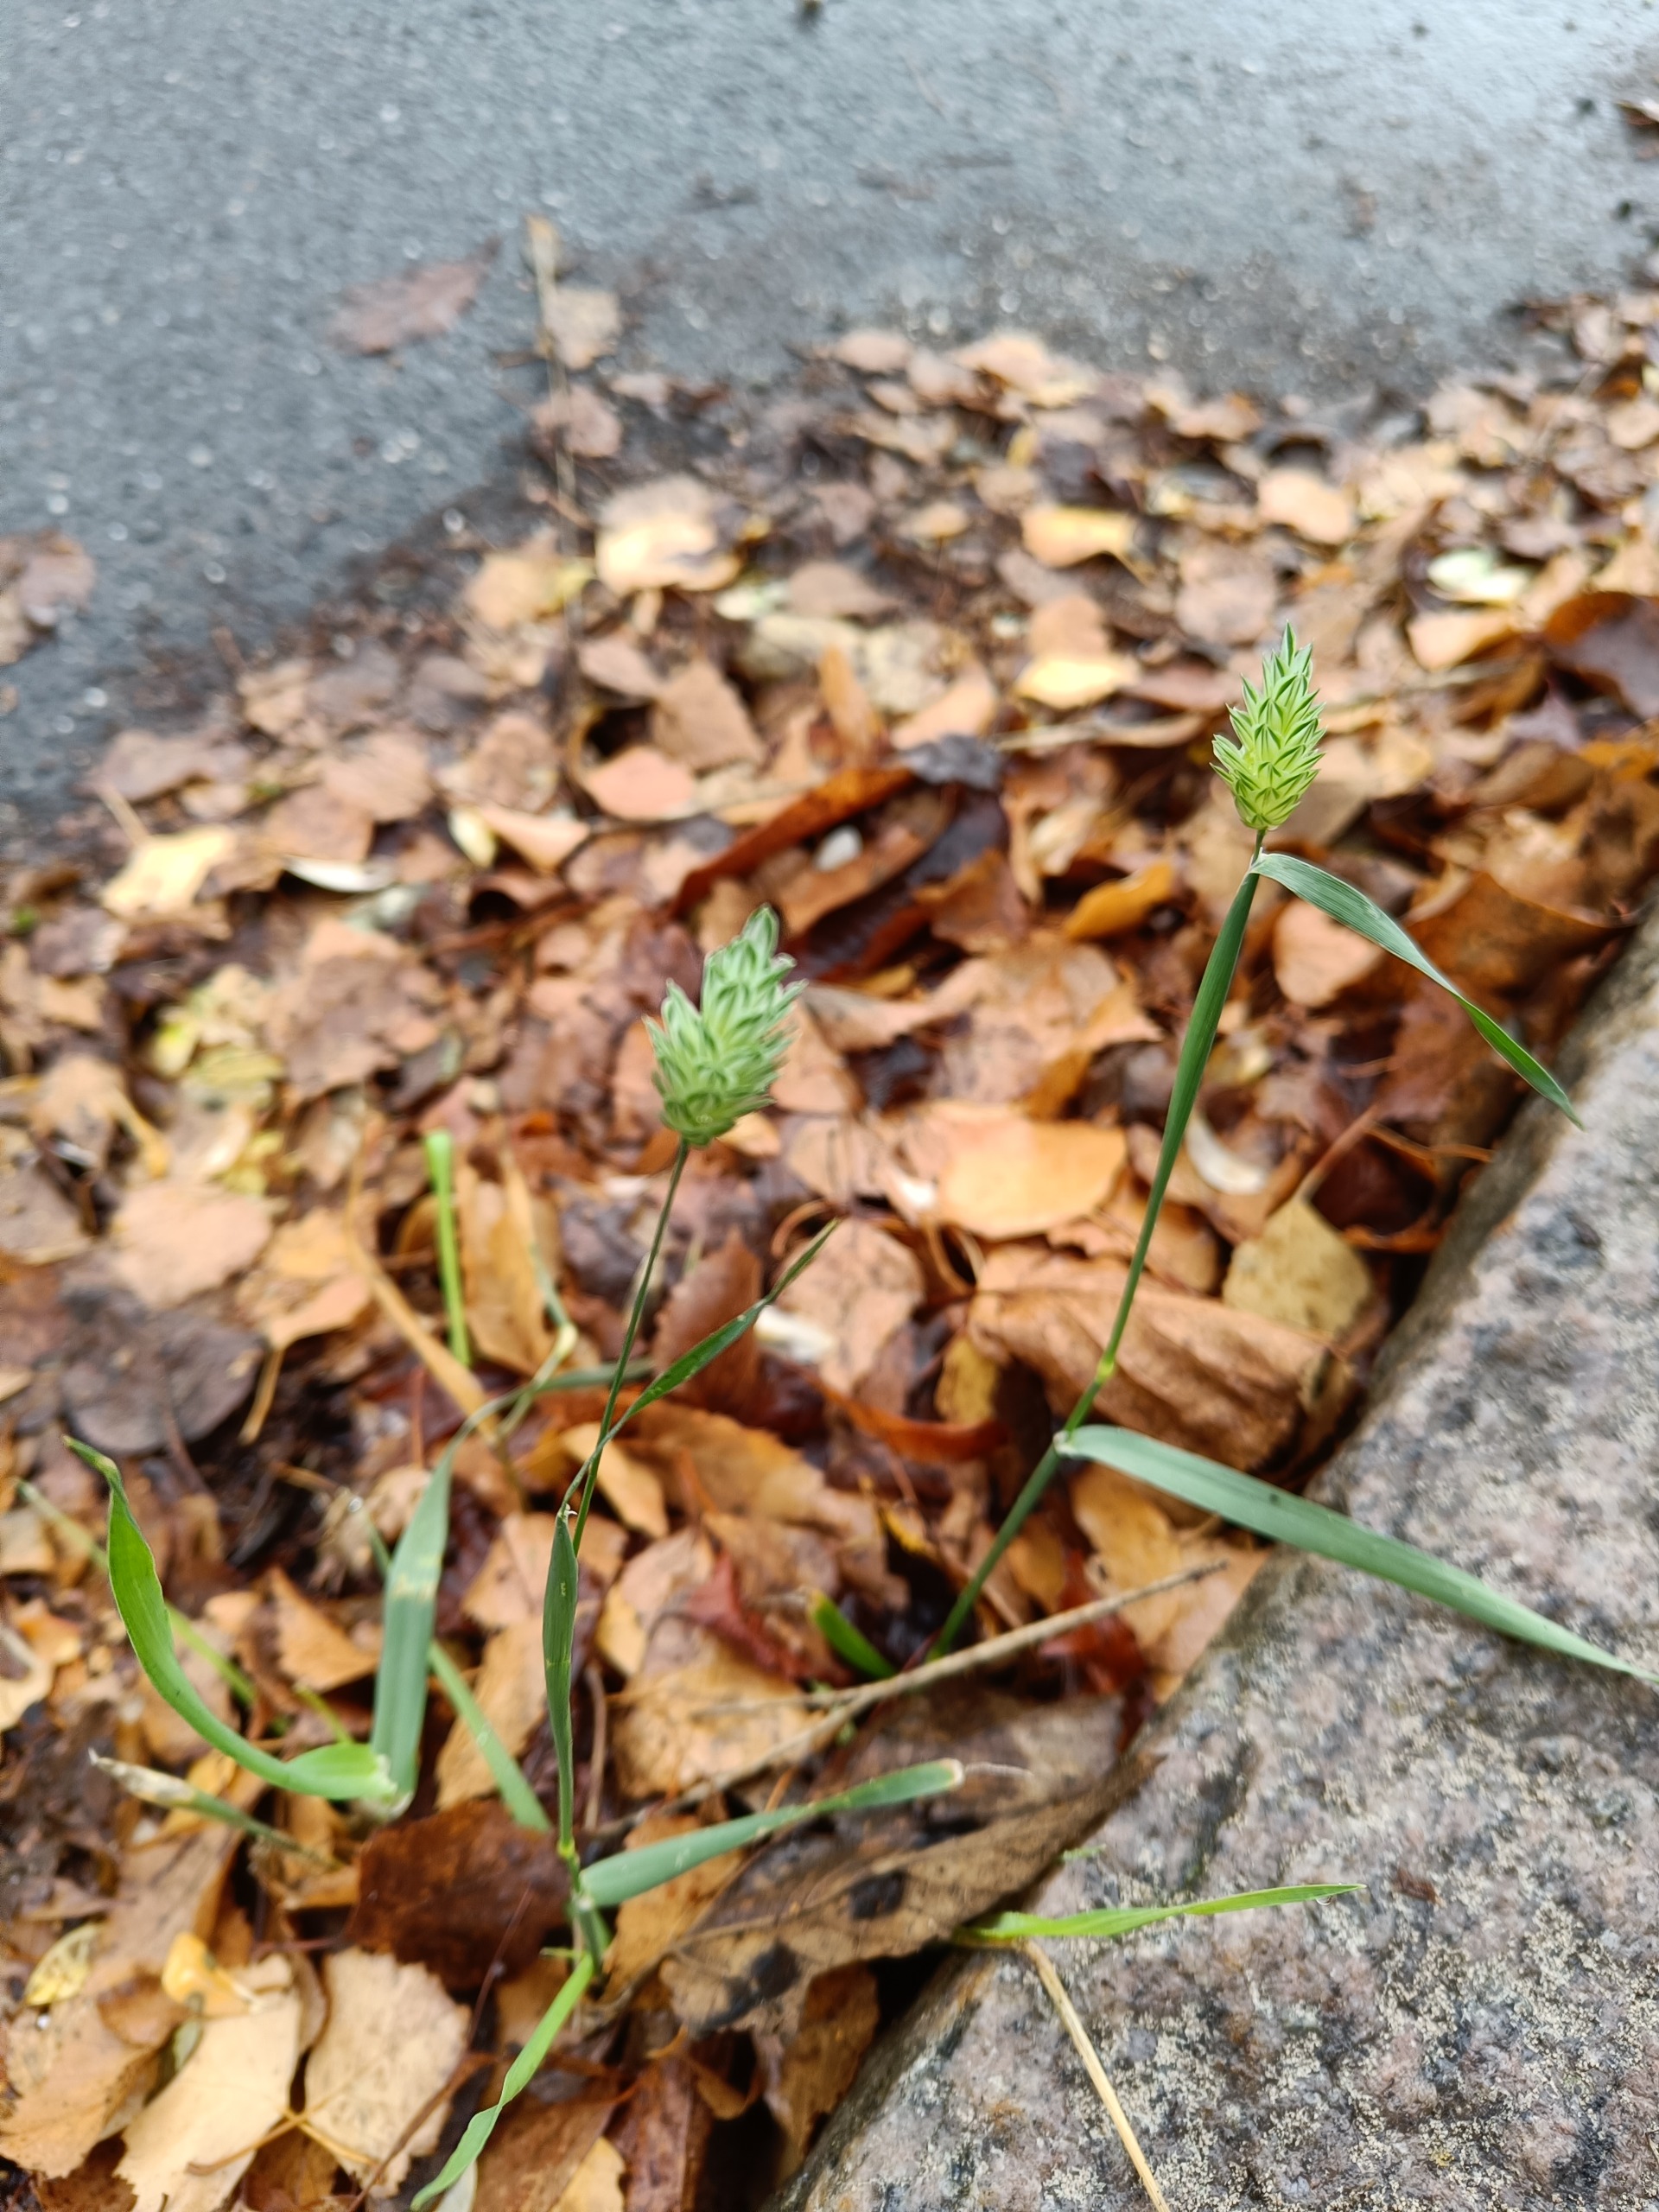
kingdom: Plantae
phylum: Tracheophyta
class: Liliopsida
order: Poales
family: Poaceae
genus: Phalaris
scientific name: Phalaris canariensis
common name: Kanariegræs
